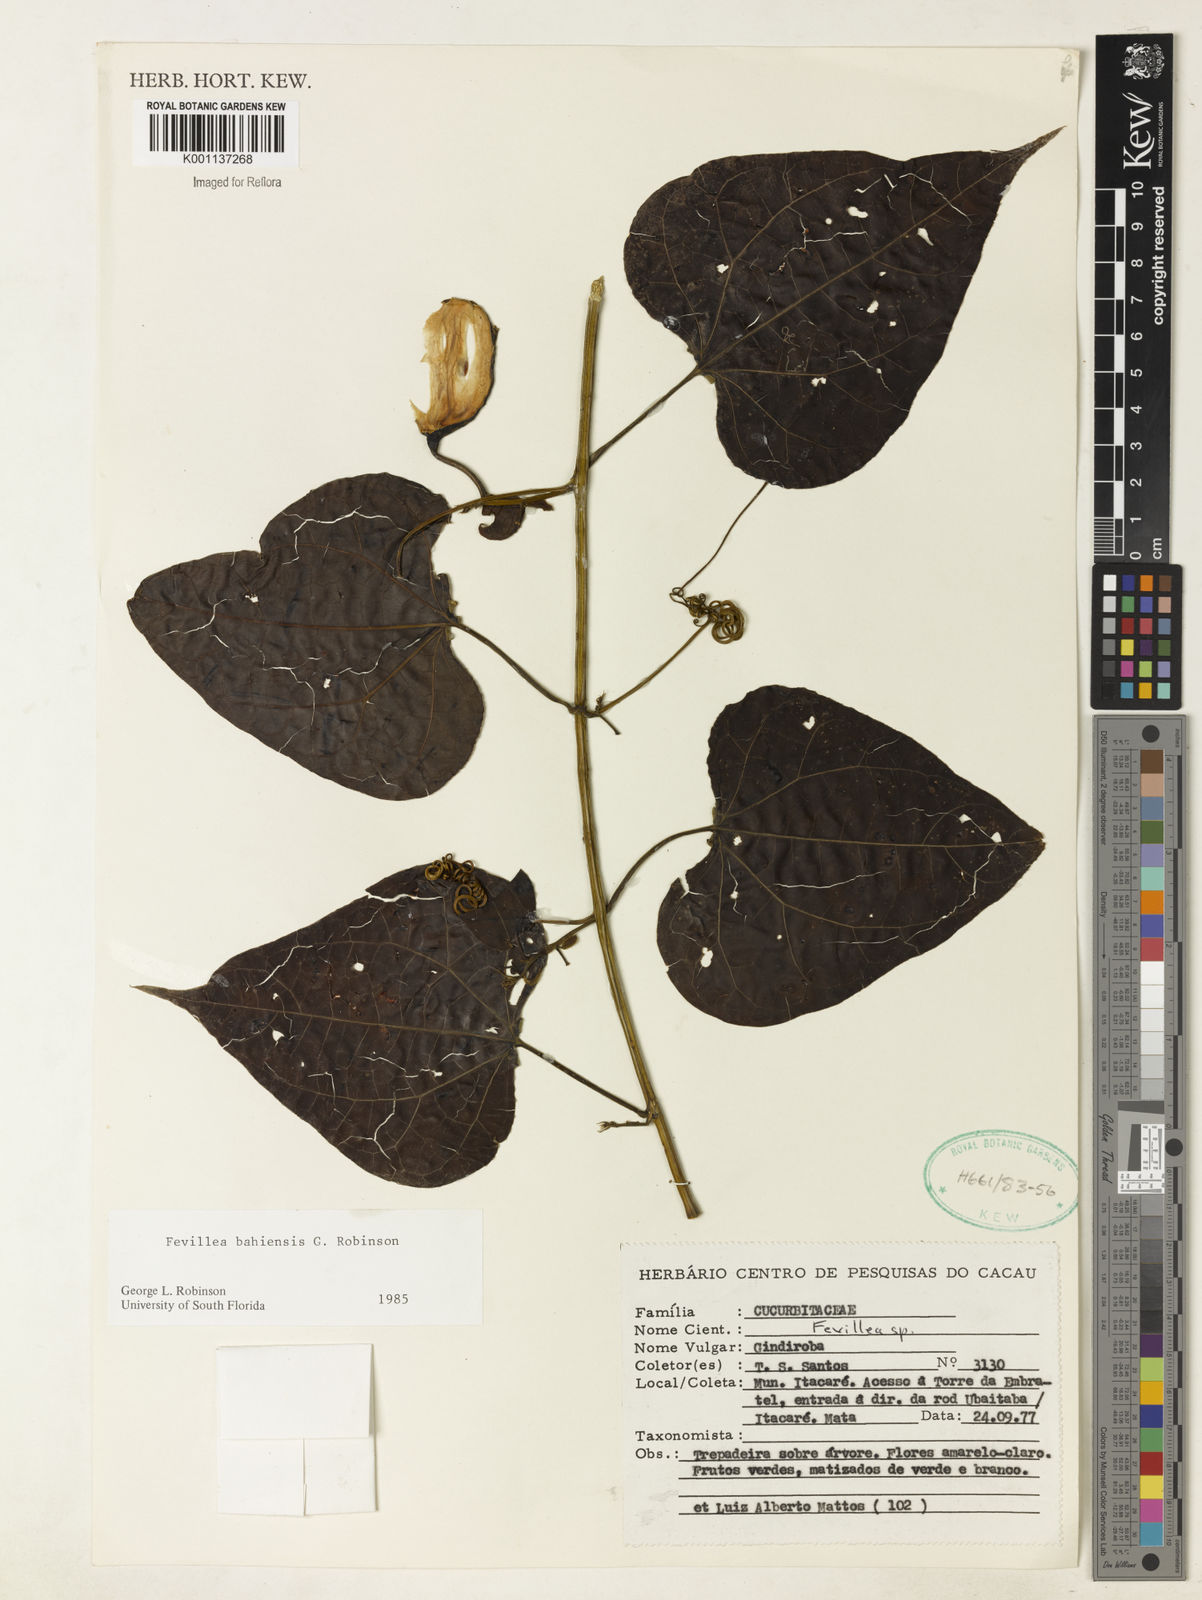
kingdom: Plantae
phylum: Tracheophyta
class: Magnoliopsida
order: Cucurbitales
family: Cucurbitaceae
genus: Fevillea
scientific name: Fevillea bahiensis
